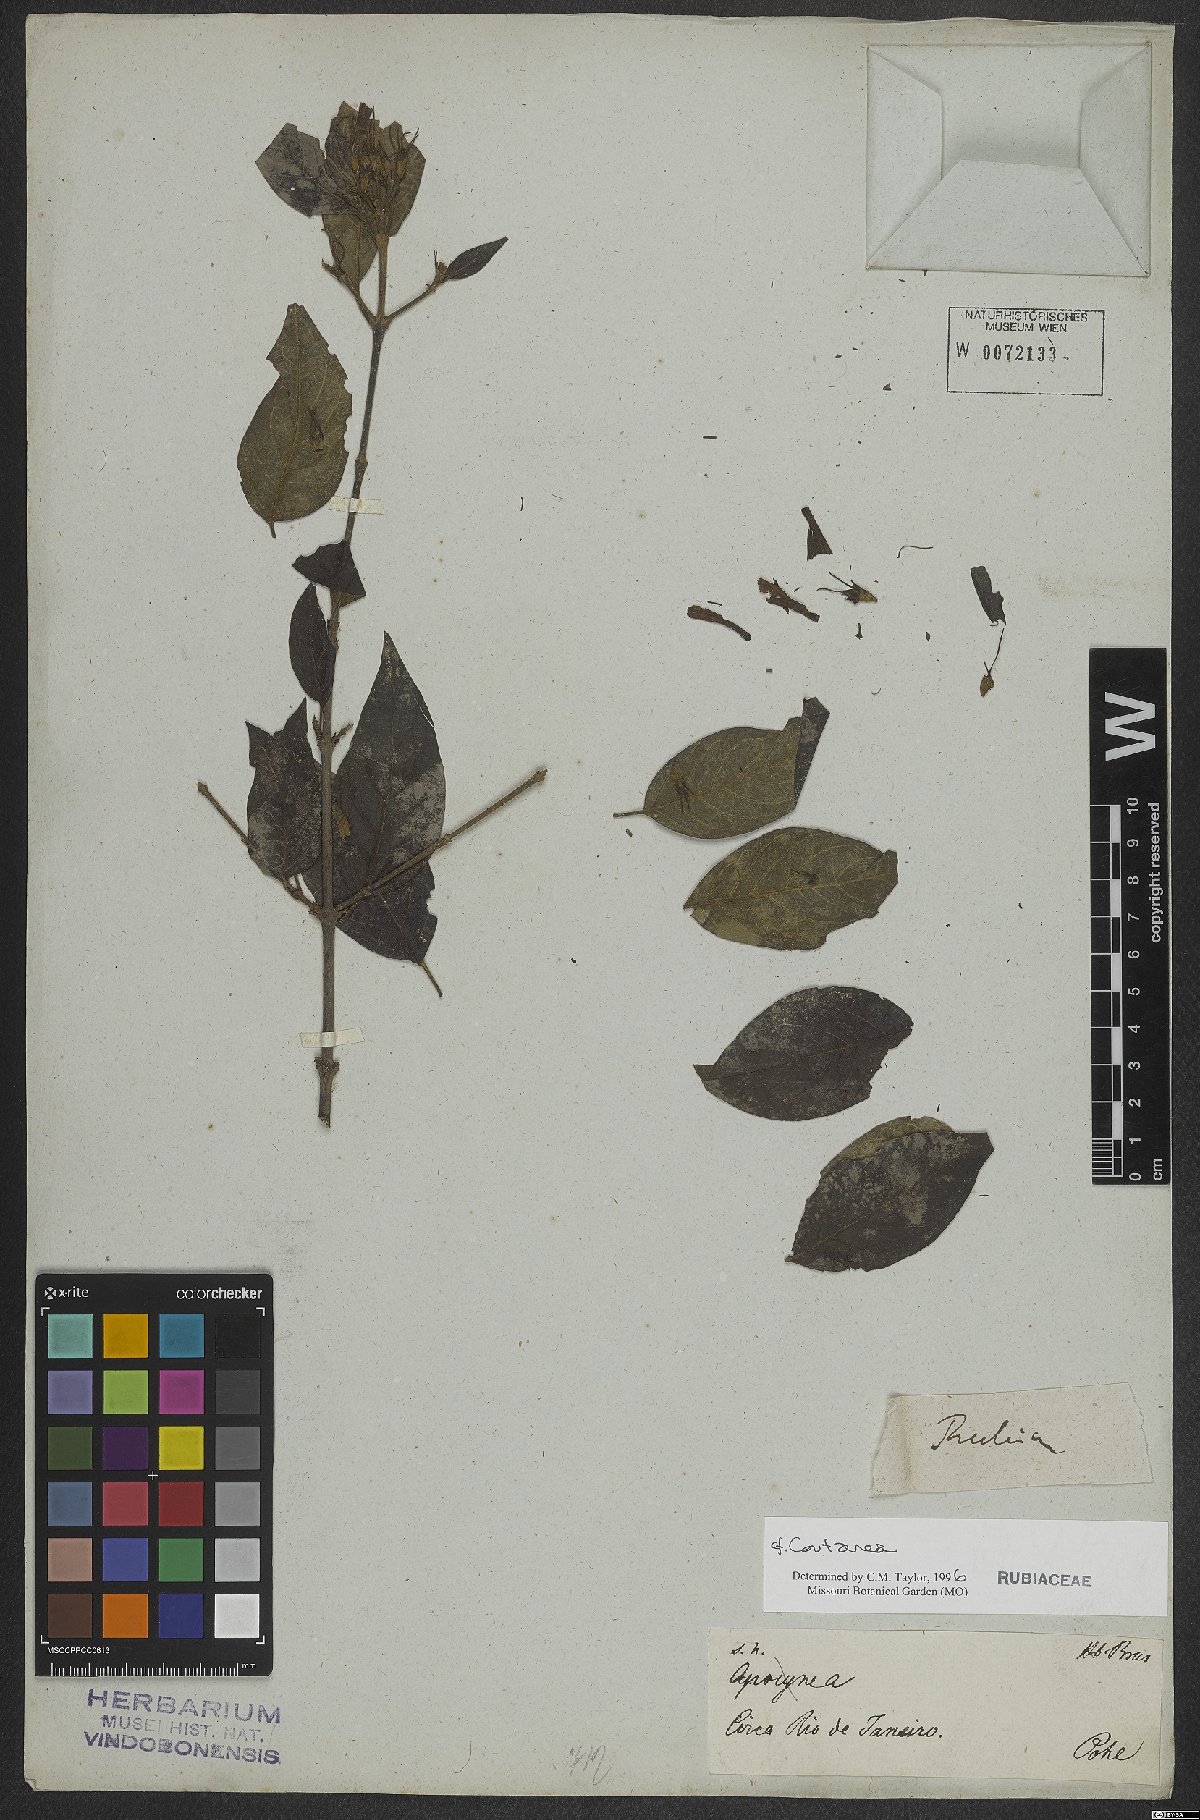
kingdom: Plantae
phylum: Tracheophyta
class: Magnoliopsida
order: Gentianales
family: Rubiaceae
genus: Coutarea
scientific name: Coutarea
